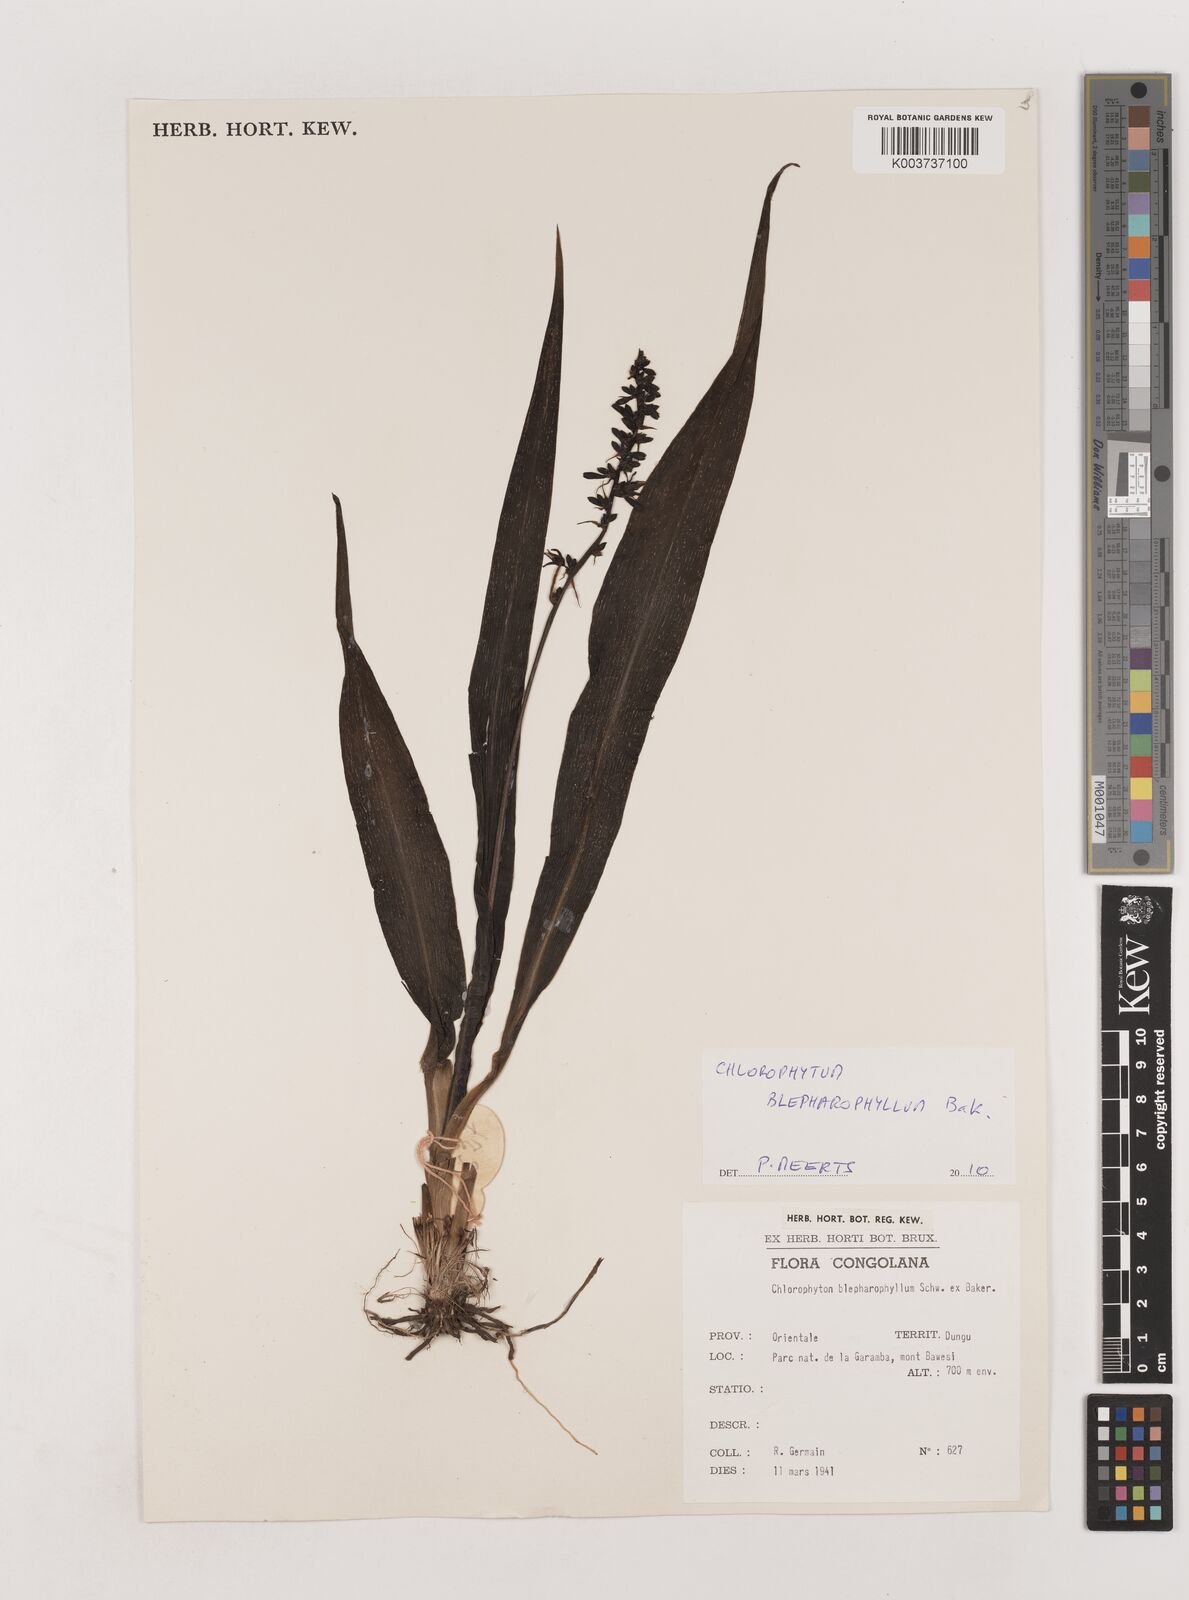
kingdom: Plantae
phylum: Tracheophyta
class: Liliopsida
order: Asparagales
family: Asparagaceae
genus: Chlorophytum
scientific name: Chlorophytum blepharophyllum
